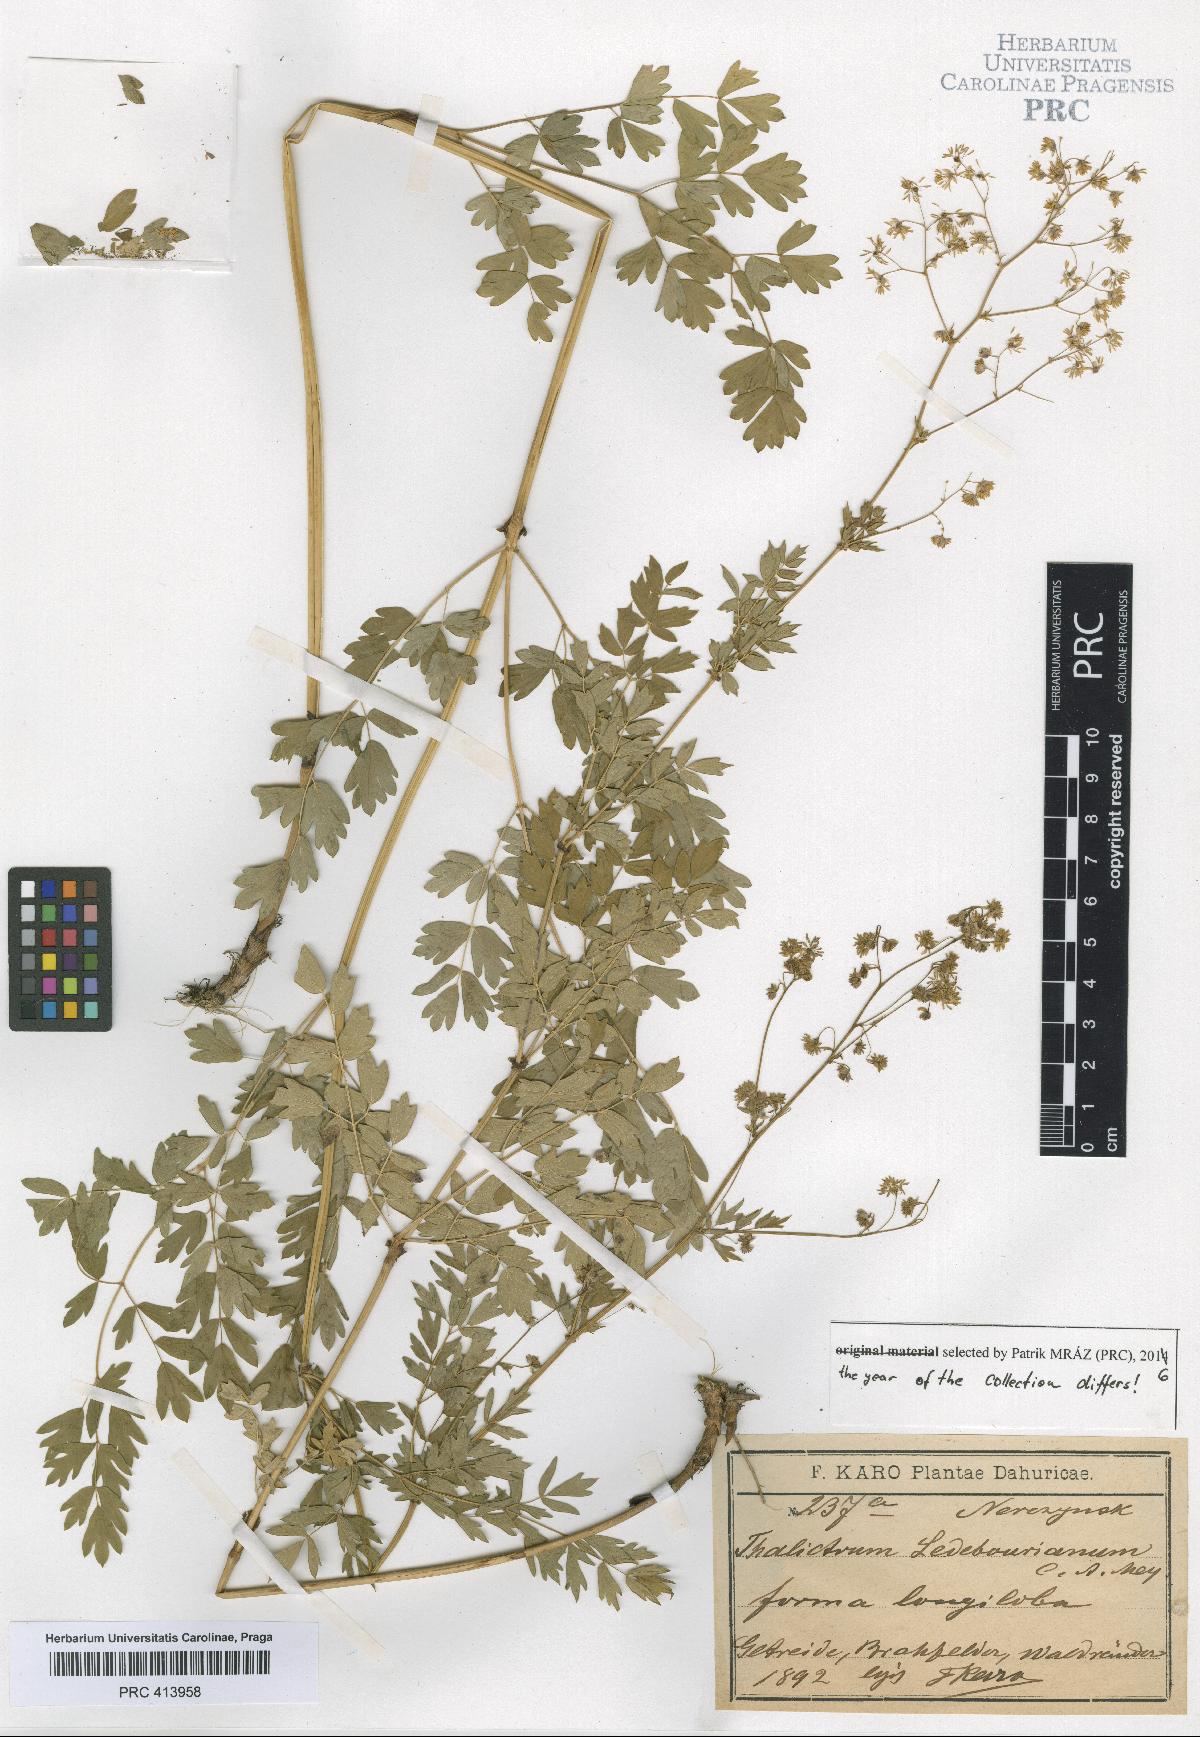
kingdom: Plantae
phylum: Tracheophyta
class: Magnoliopsida
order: Ranunculales
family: Ranunculaceae
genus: Thalictrum
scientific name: Thalictrum squarrosum
